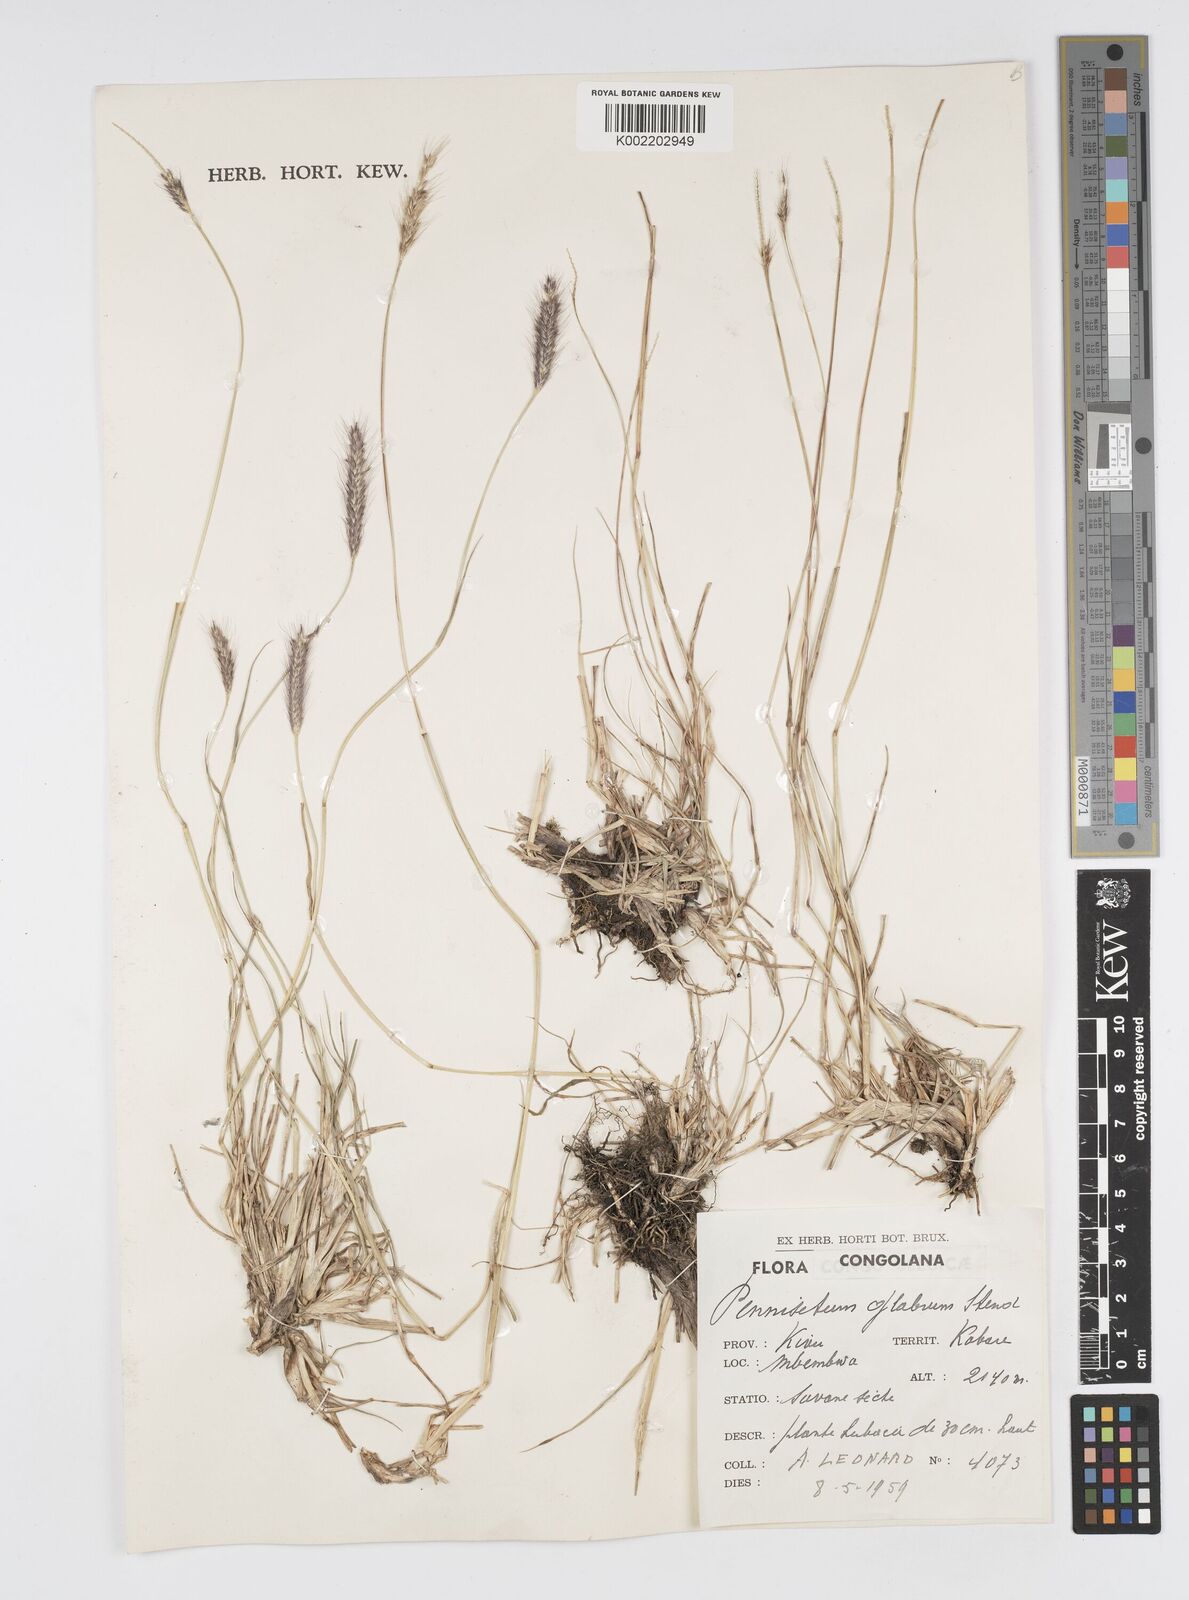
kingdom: Plantae
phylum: Tracheophyta
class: Liliopsida
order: Poales
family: Poaceae
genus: Cenchrus
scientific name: Cenchrus geniculatus
